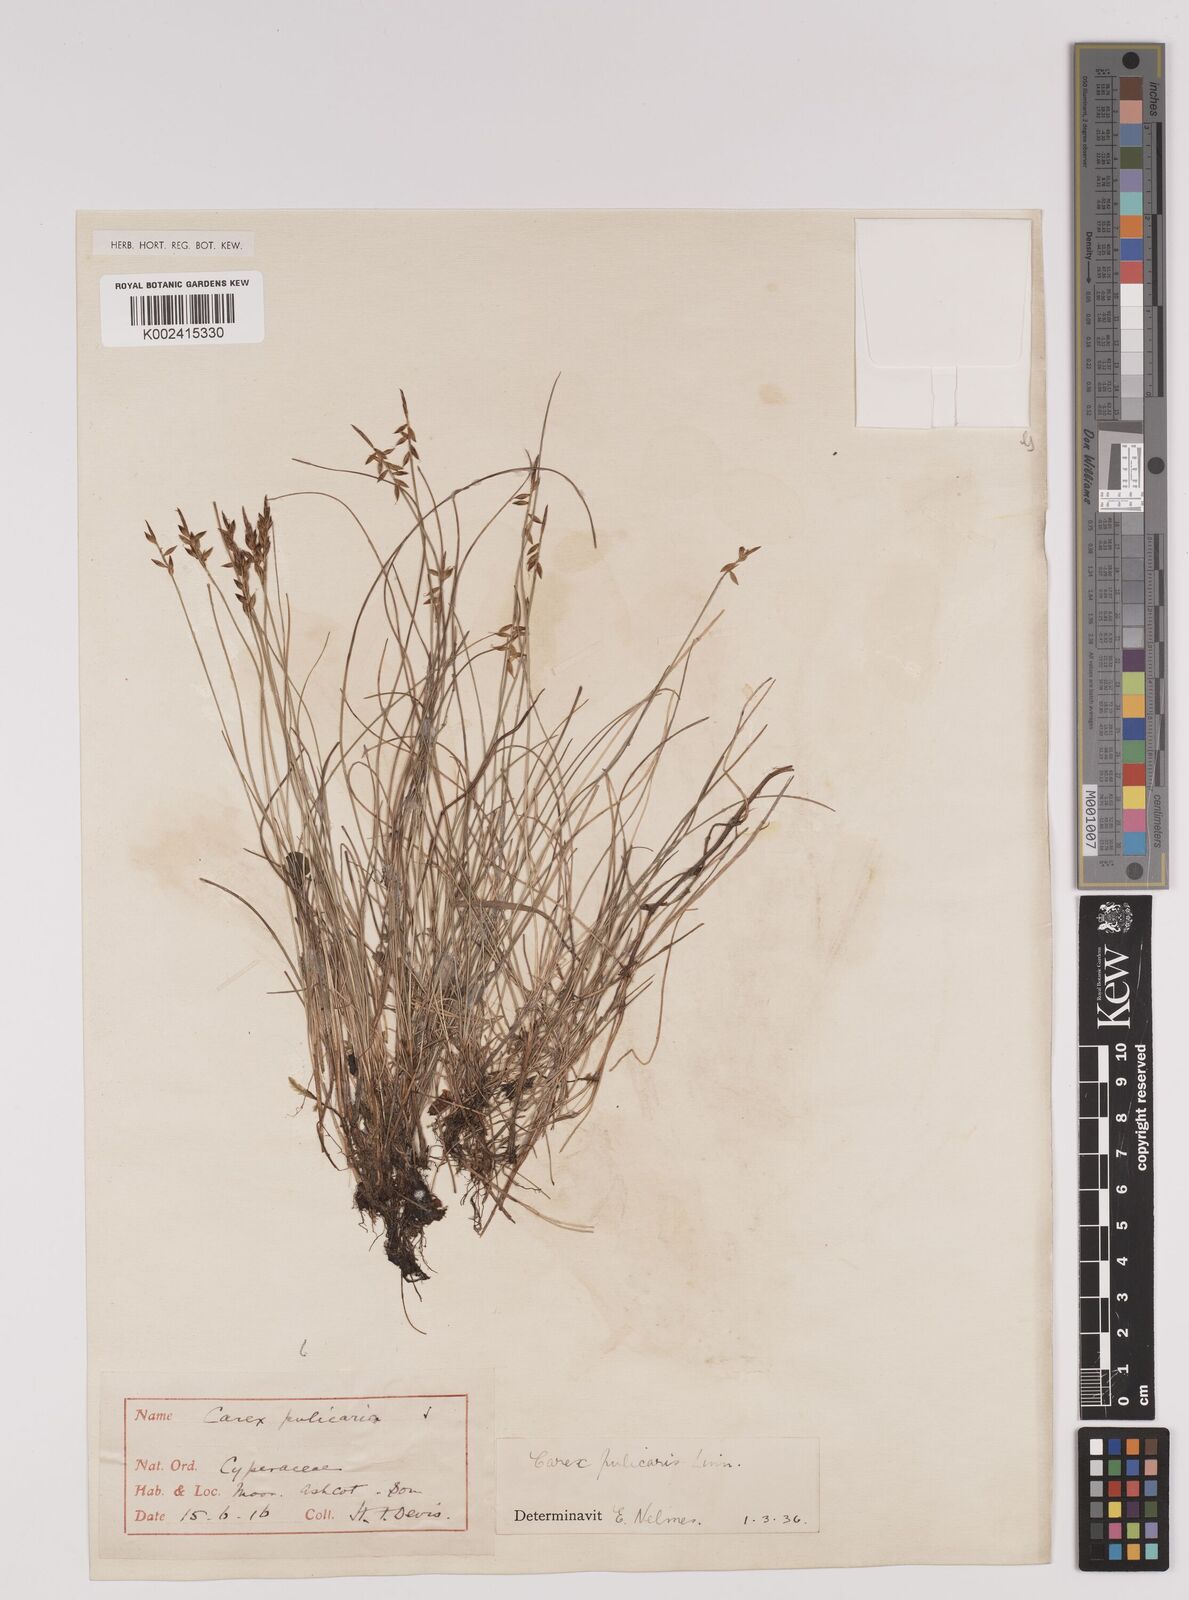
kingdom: Plantae
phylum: Tracheophyta
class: Liliopsida
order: Poales
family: Cyperaceae
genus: Carex
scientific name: Carex pulicaris
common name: Flea sedge
